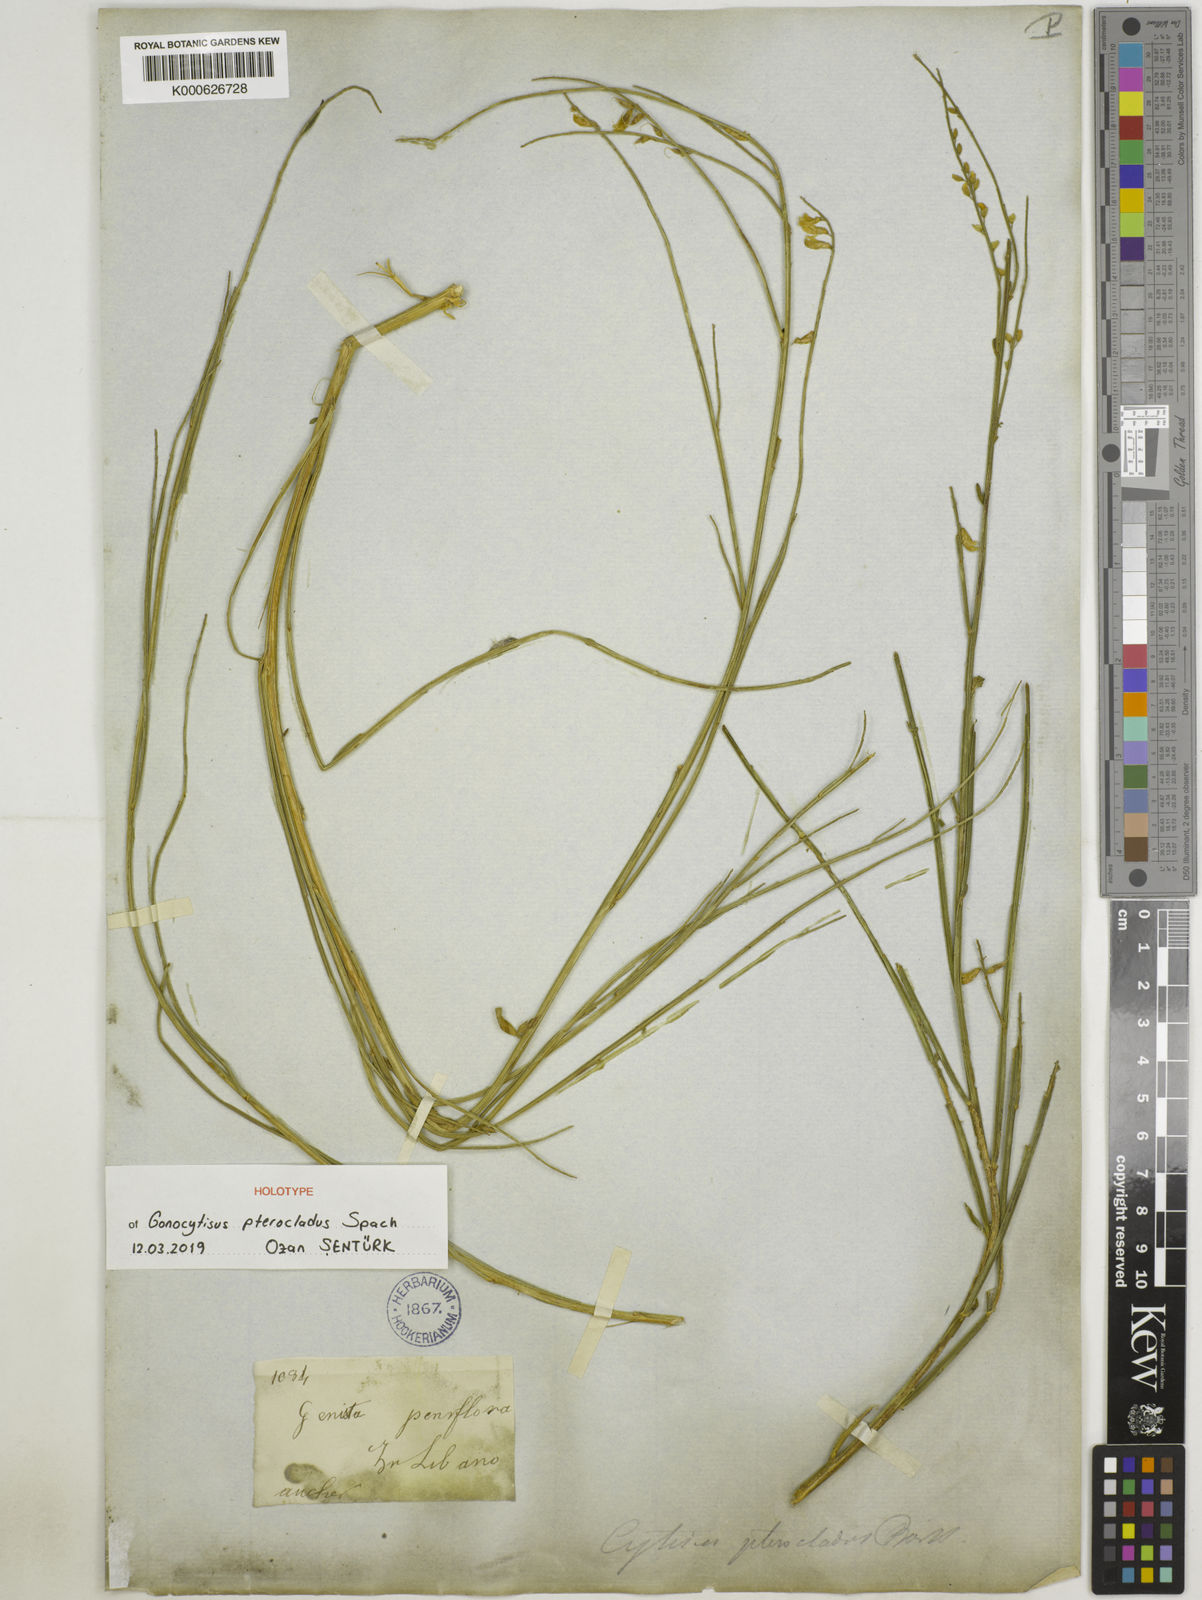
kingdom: Plantae
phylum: Tracheophyta
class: Magnoliopsida
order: Fabales
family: Fabaceae
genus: Gonocytisus
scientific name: Gonocytisus pterocladus
